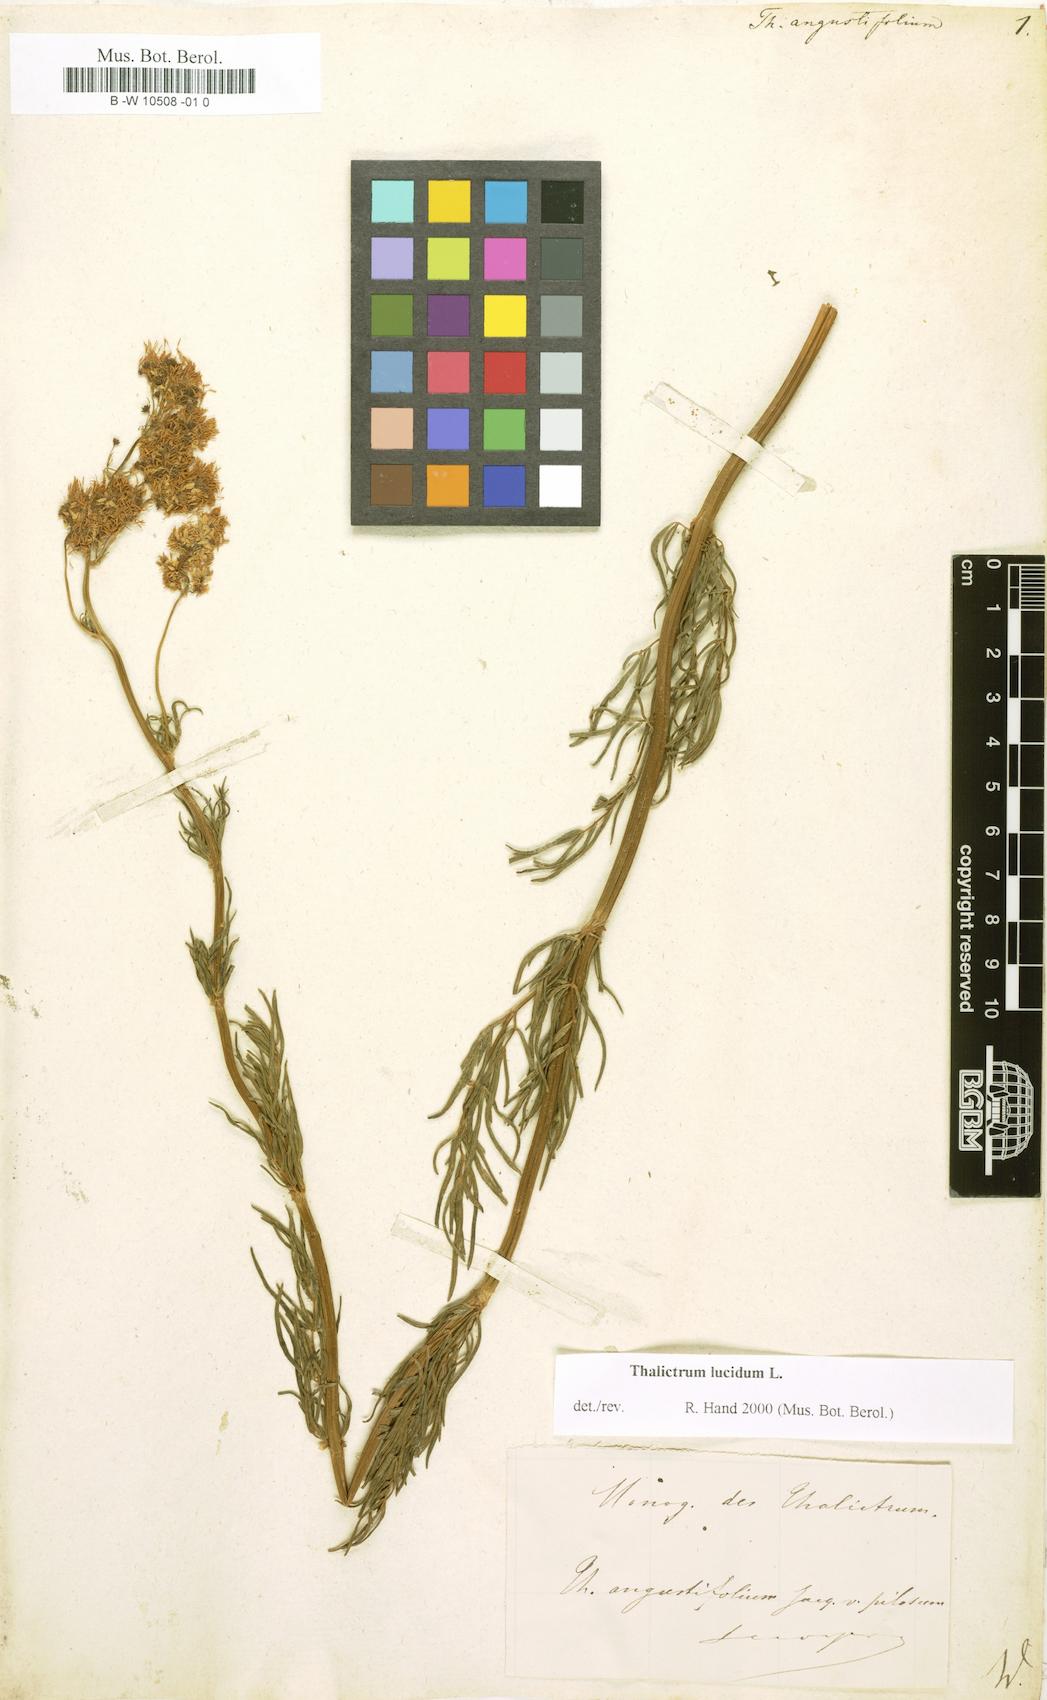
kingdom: Plantae
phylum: Tracheophyta
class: Magnoliopsida
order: Ranunculales
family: Ranunculaceae
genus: Thalictrum
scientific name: Thalictrum lucidum
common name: Shining meadow-rue
